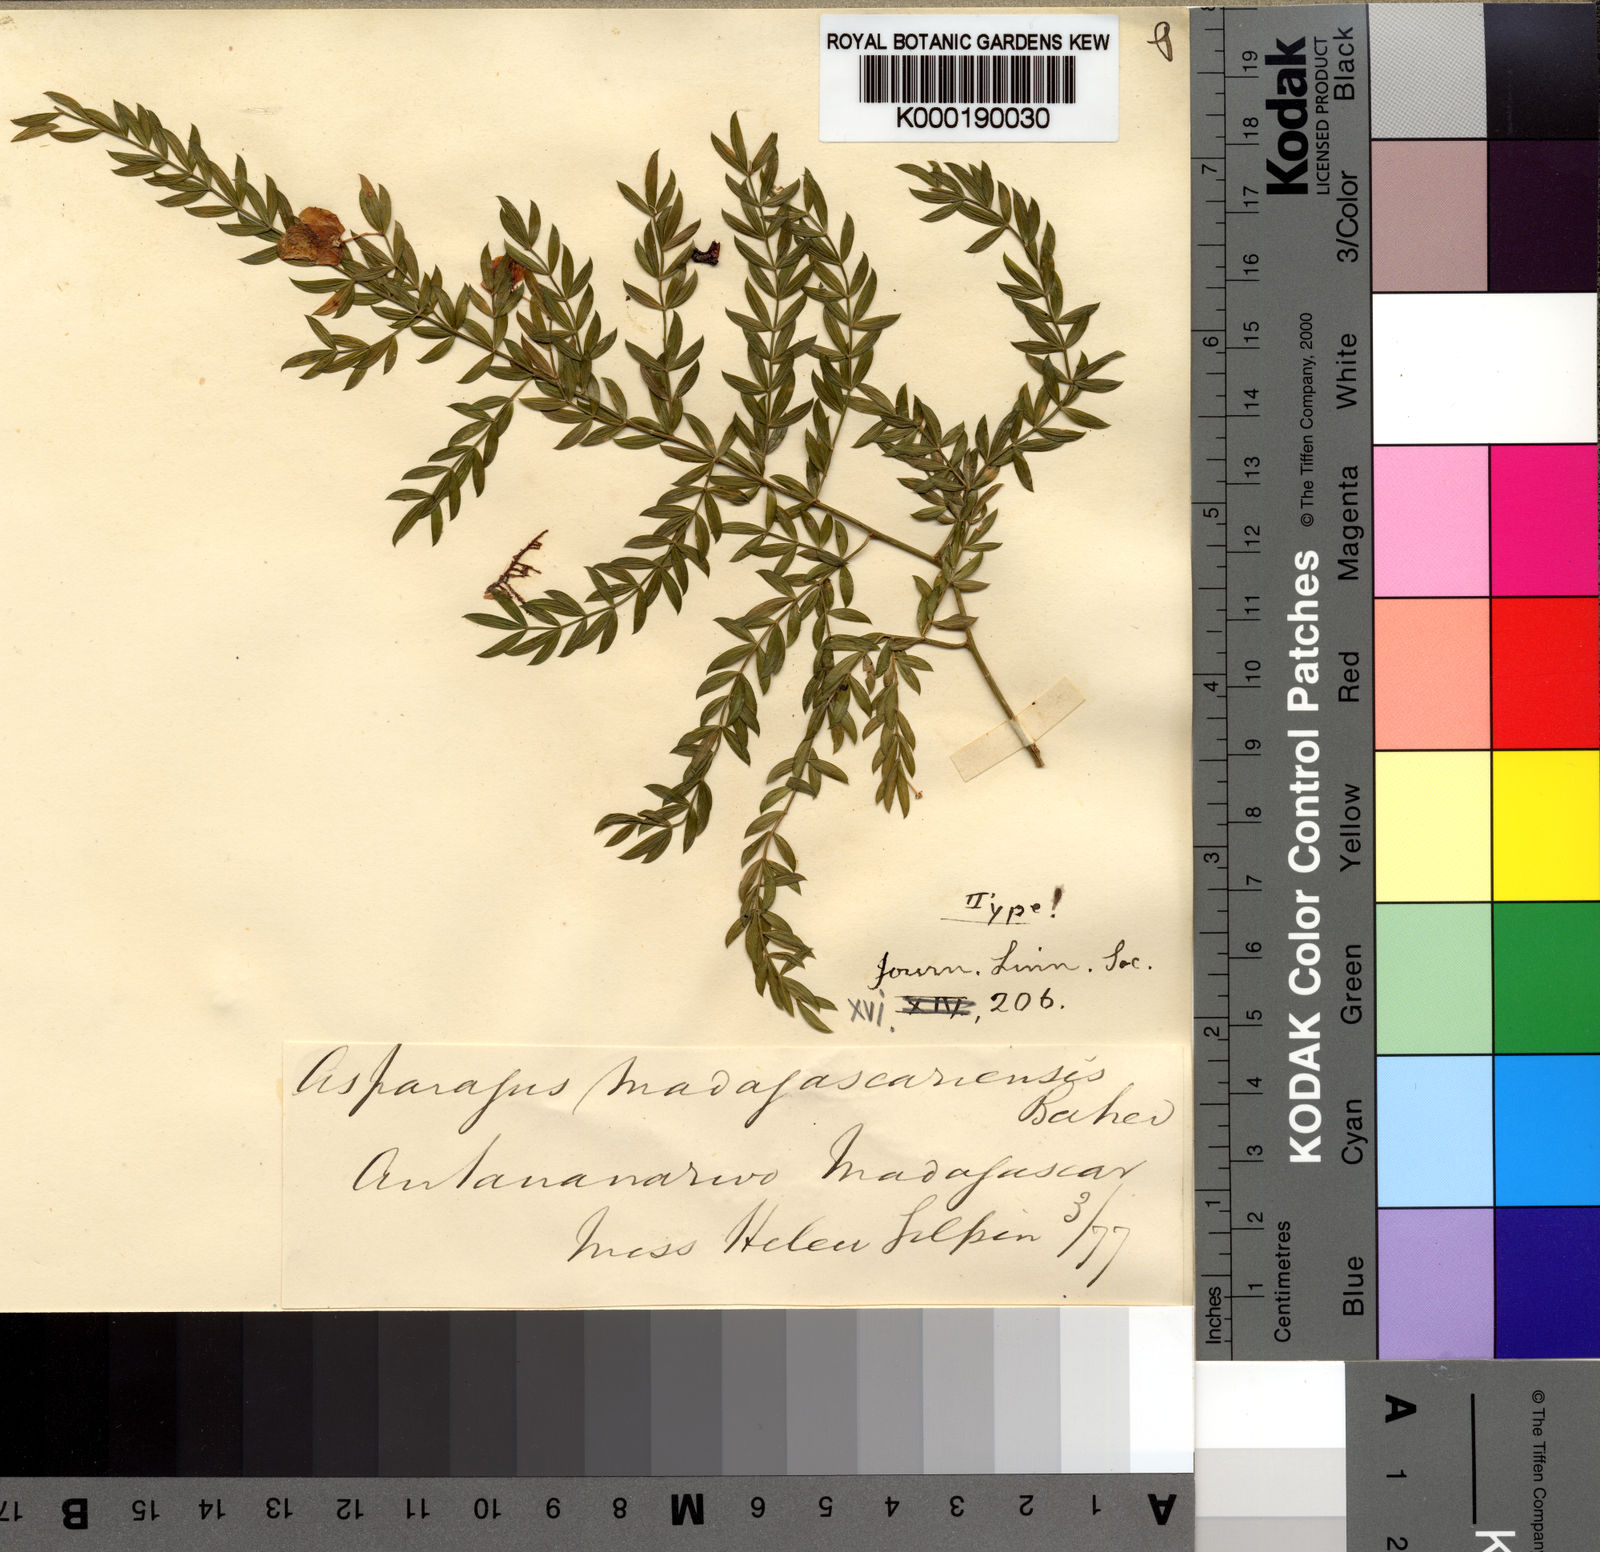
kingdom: Plantae
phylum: Tracheophyta
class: Liliopsida
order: Asparagales
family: Asparagaceae
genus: Asparagus
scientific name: Asparagus simulans
